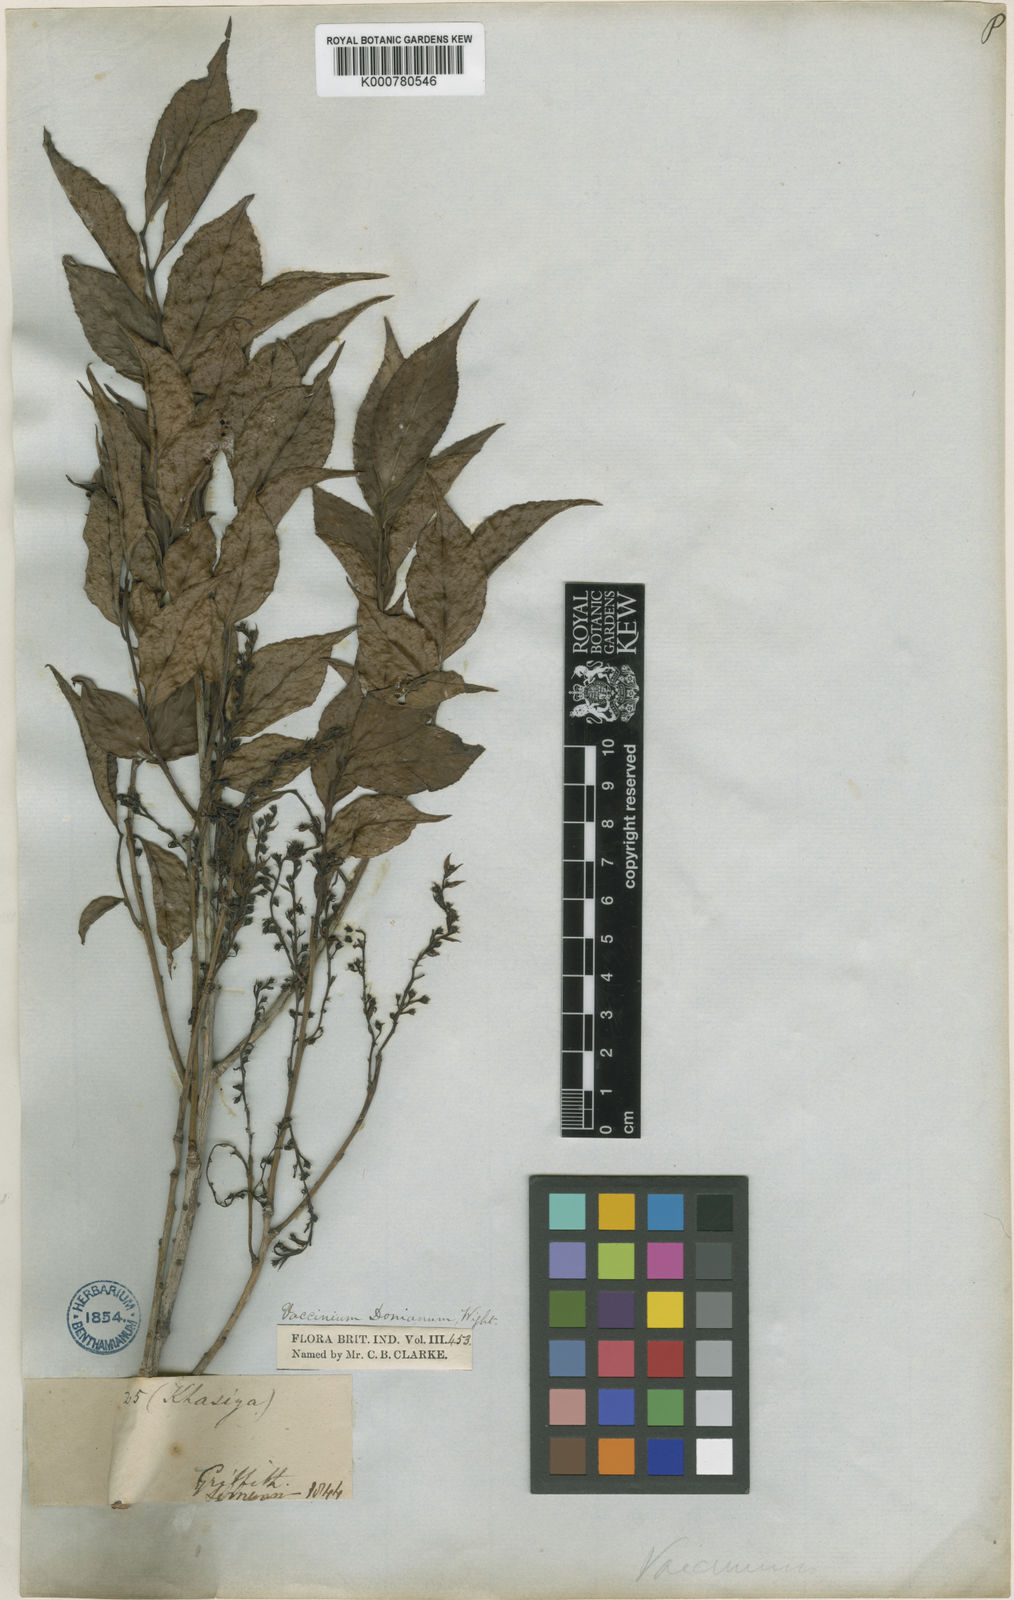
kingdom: Plantae
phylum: Tracheophyta
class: Magnoliopsida
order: Ericales
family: Ericaceae
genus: Vaccinium
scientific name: Vaccinium
